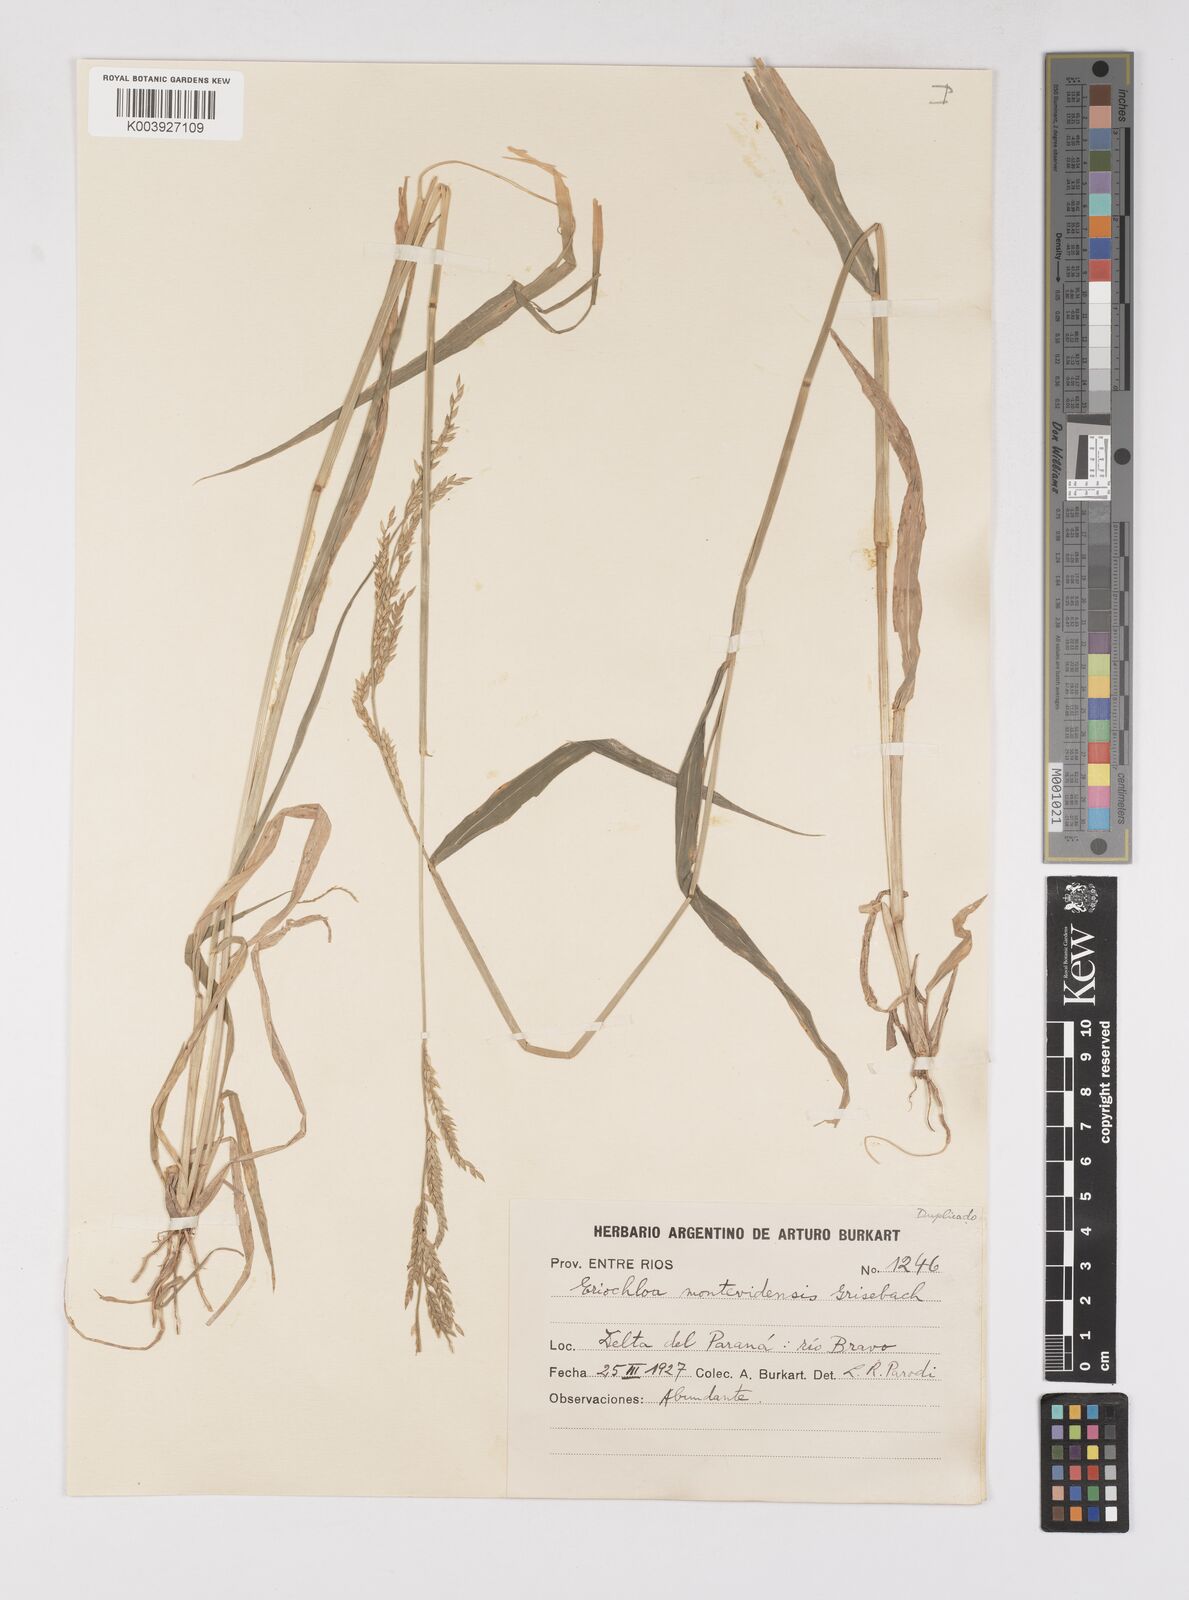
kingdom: Plantae
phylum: Tracheophyta
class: Liliopsida
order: Poales
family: Poaceae
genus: Eriochloa
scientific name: Eriochloa punctata
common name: Louisiana cupgrass
